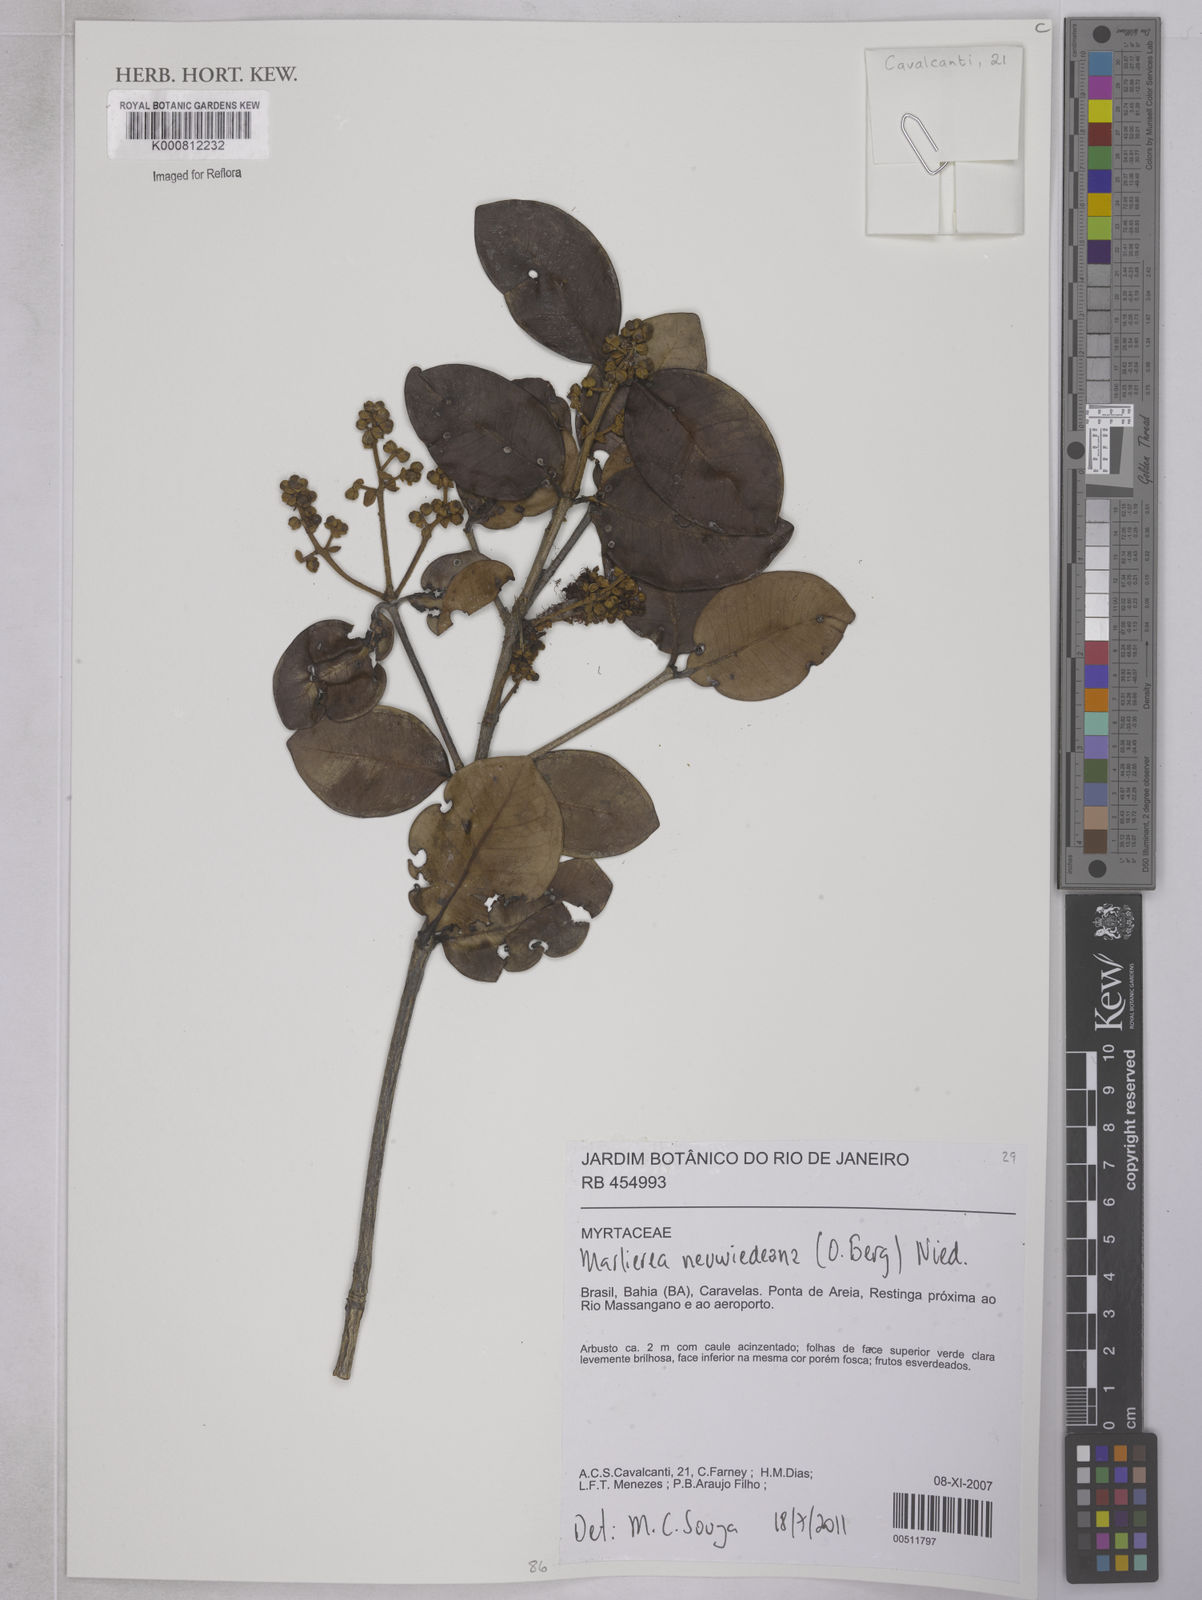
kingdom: Plantae
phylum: Tracheophyta
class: Magnoliopsida
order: Myrtales
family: Myrtaceae
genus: Myrcia
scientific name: Myrcia neuwiedeana
